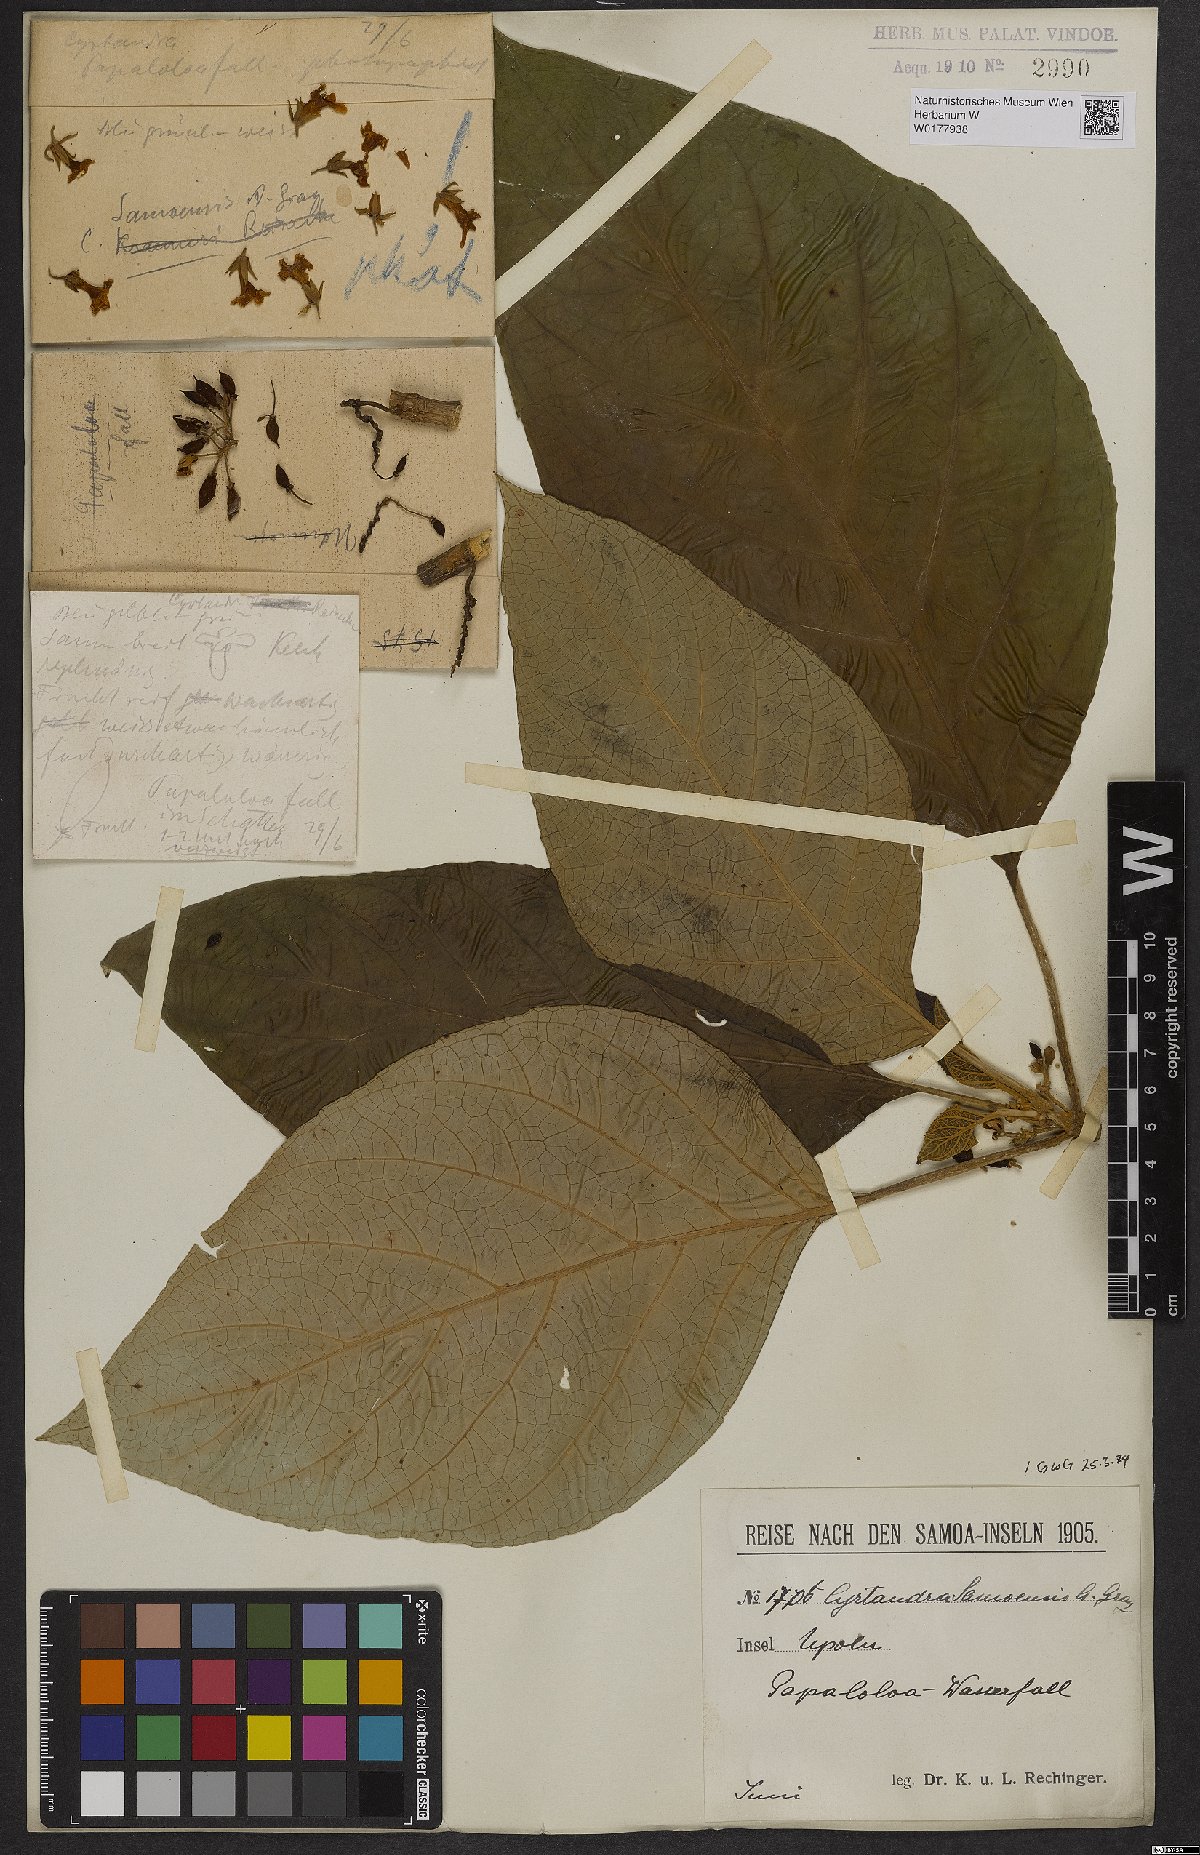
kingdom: Plantae
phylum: Tracheophyta
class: Magnoliopsida
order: Lamiales
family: Gesneriaceae
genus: Cyrtandra
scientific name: Cyrtandra samoensis
